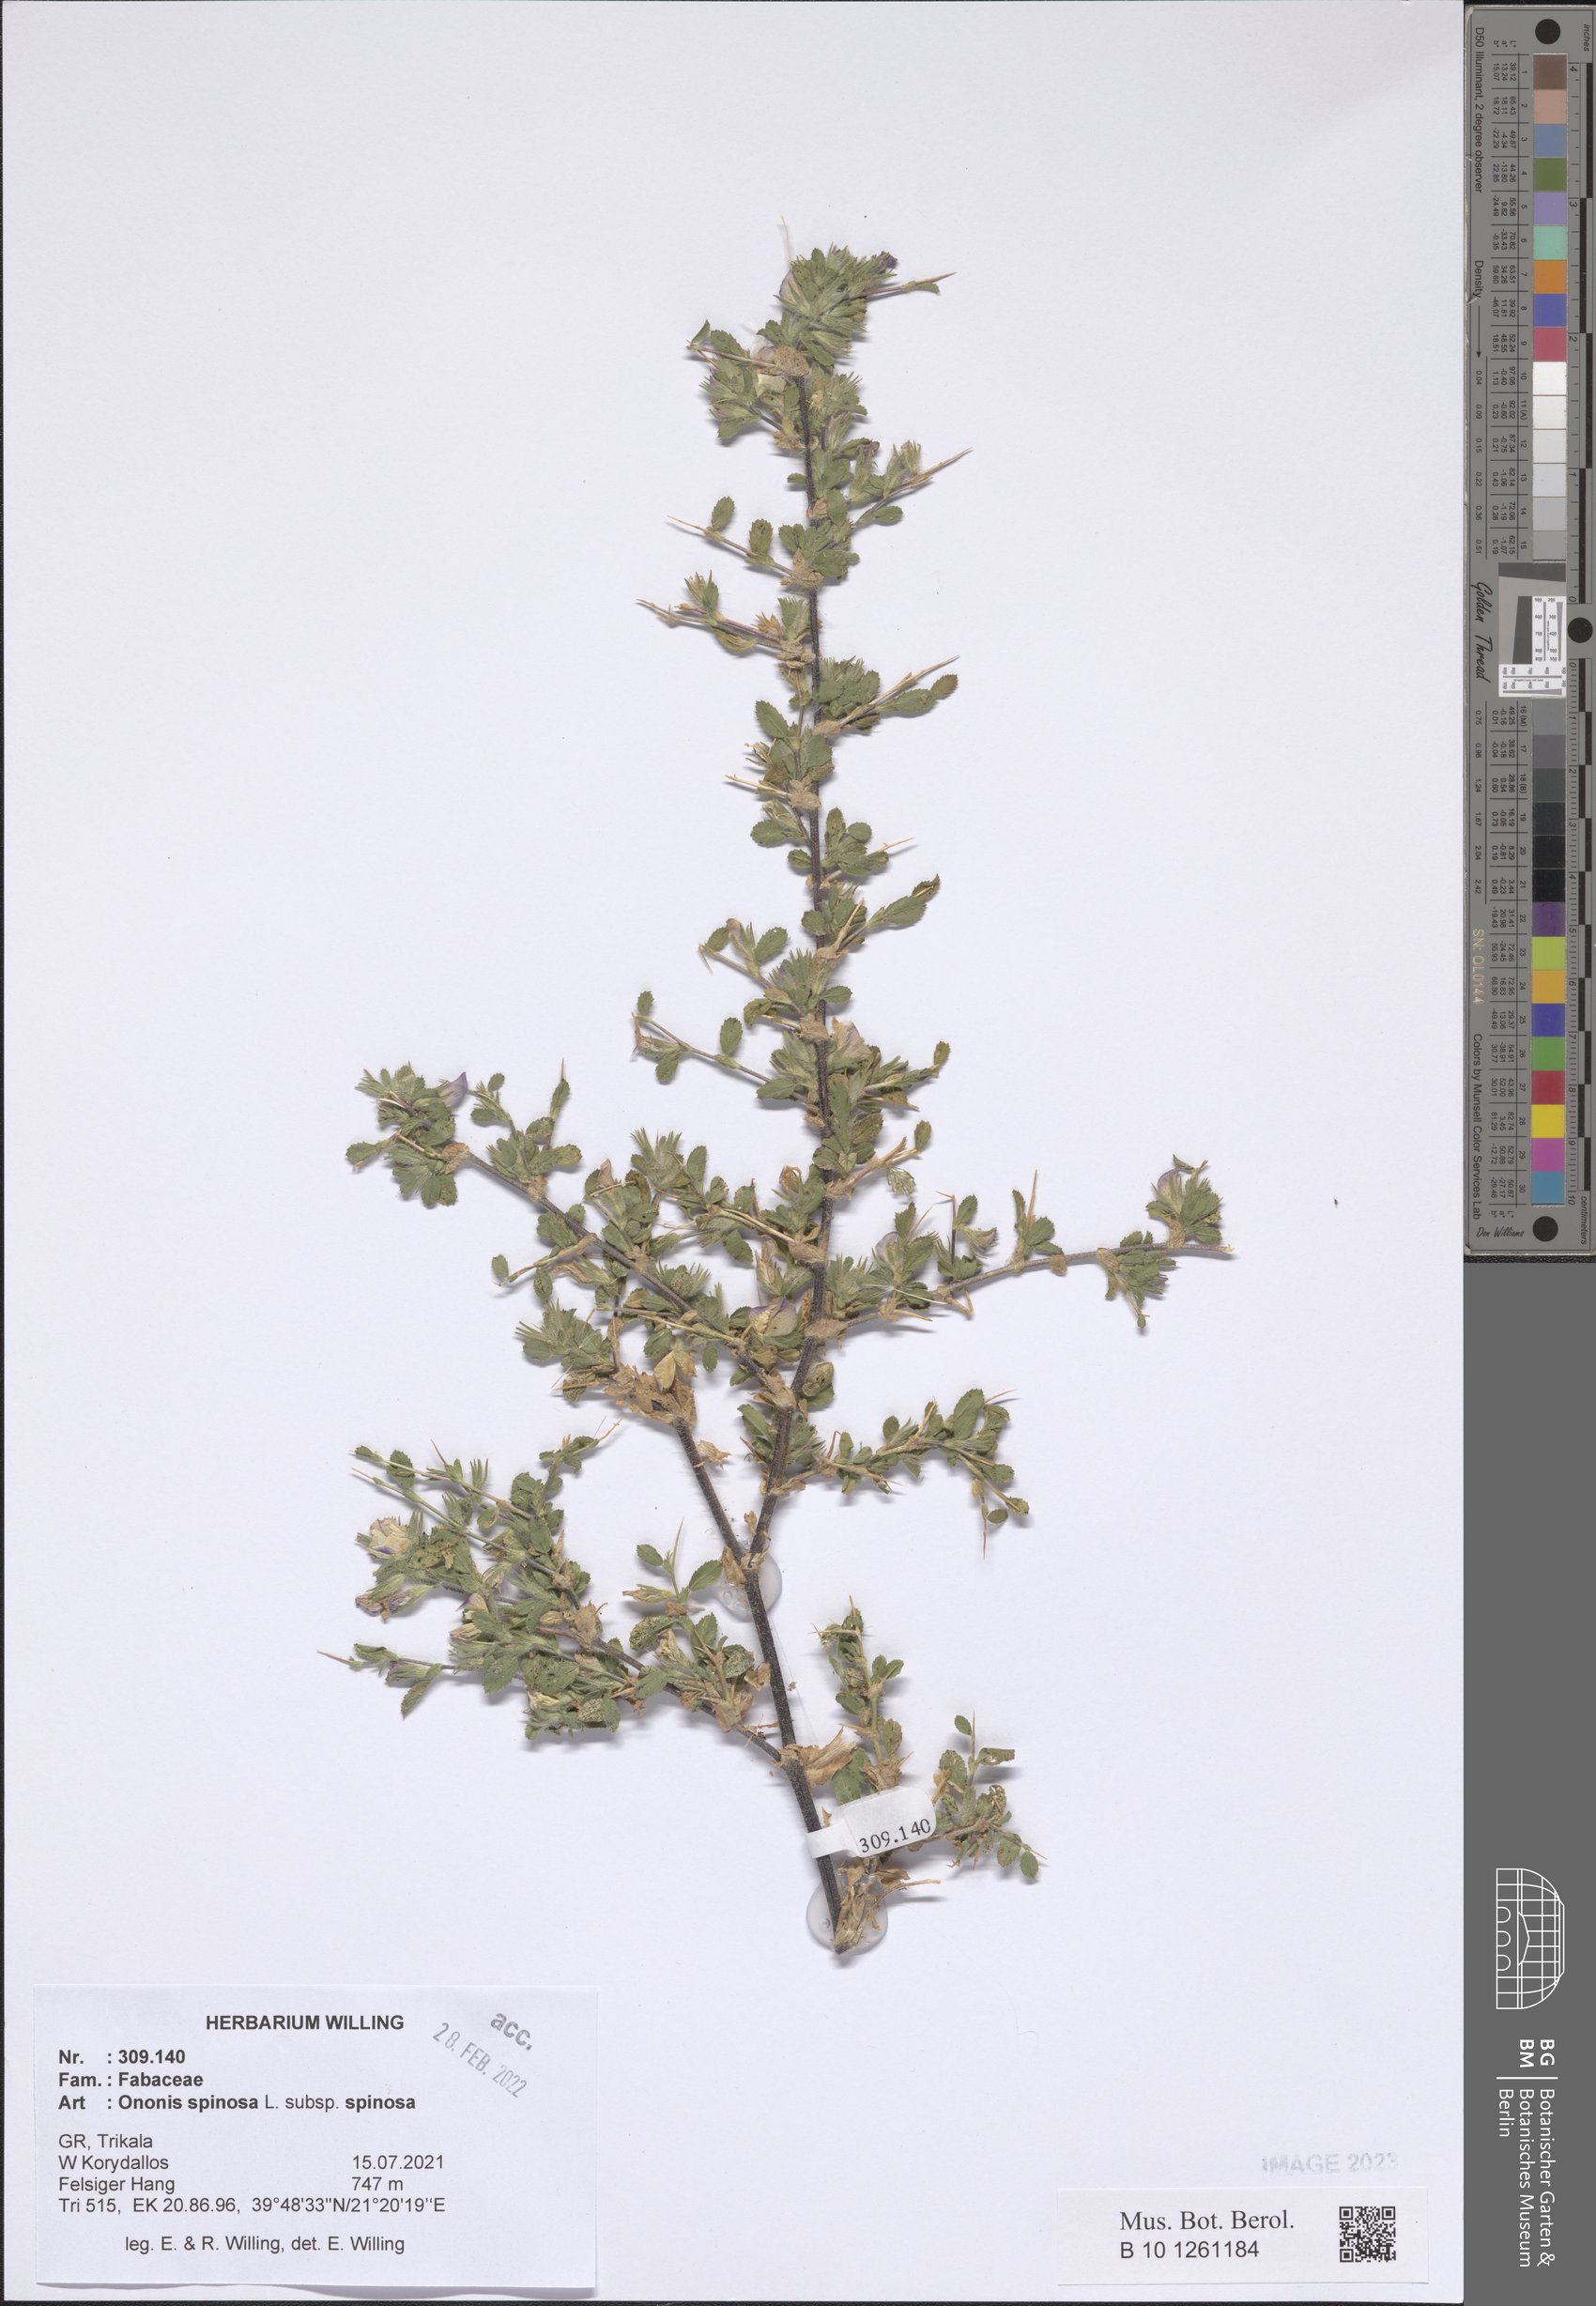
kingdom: Plantae
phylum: Tracheophyta
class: Magnoliopsida
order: Fabales
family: Fabaceae
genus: Ononis
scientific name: Ononis spinosa
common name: Spiny restharrow
